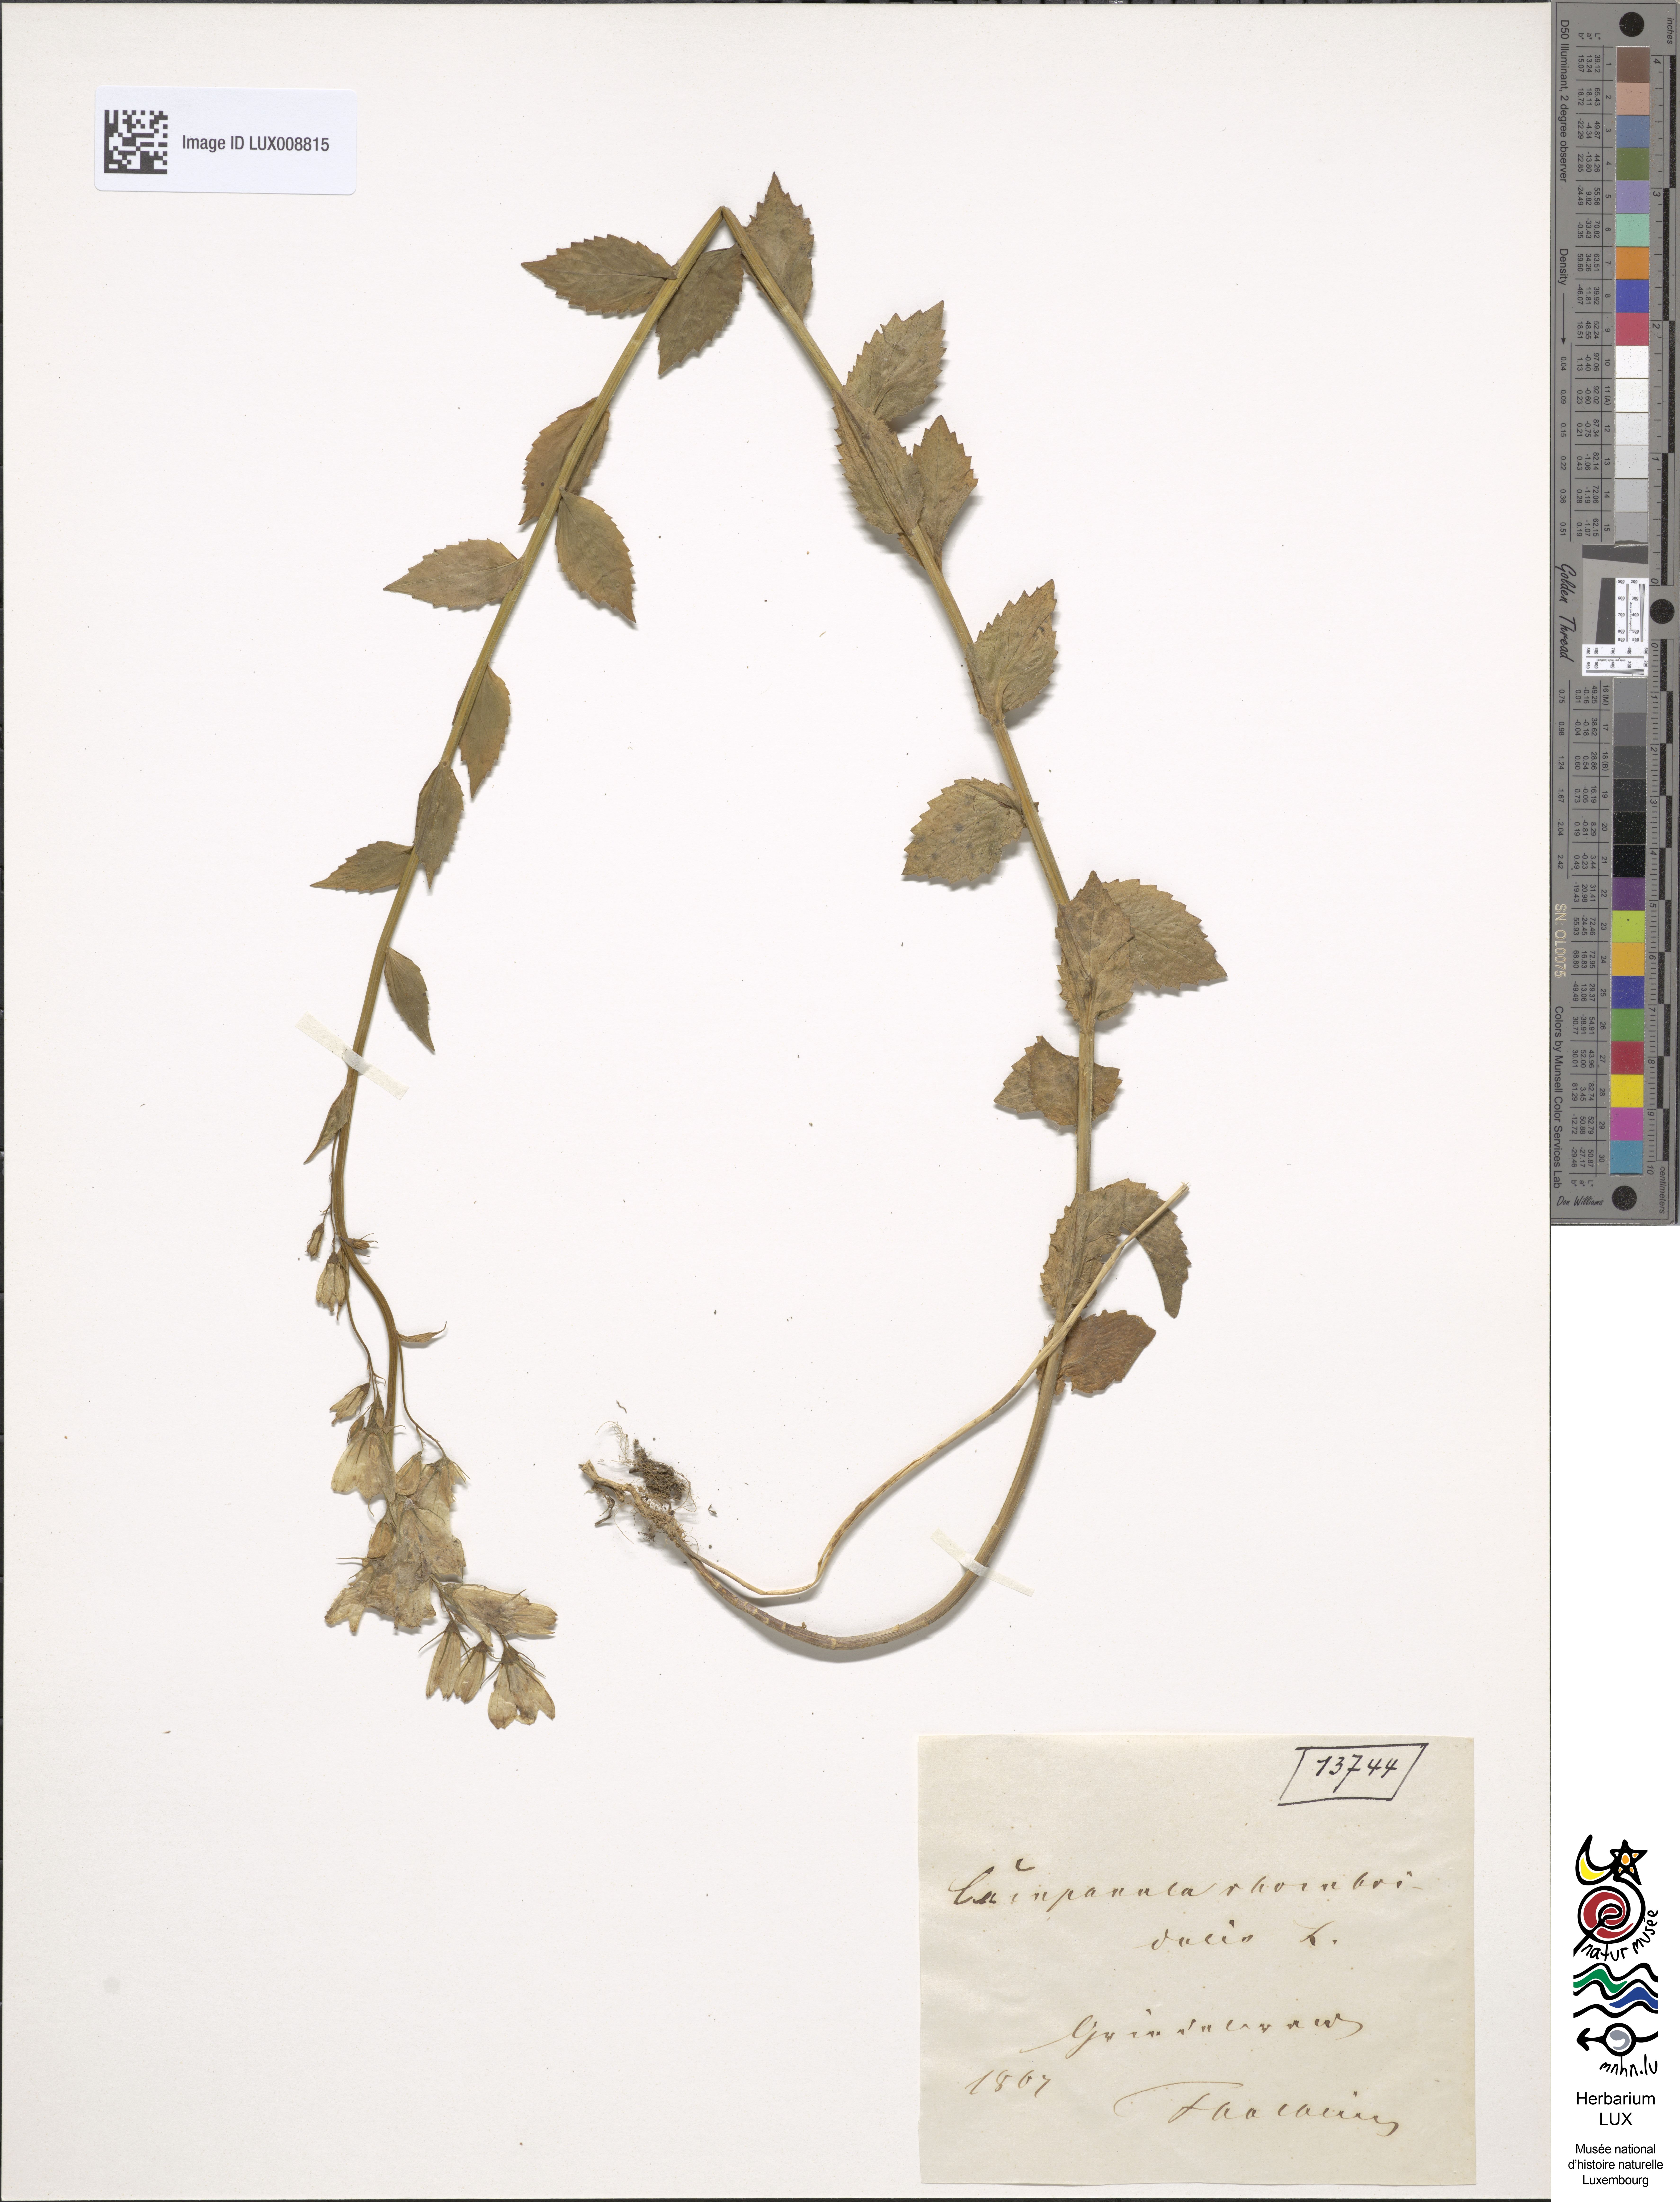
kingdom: Plantae
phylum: Tracheophyta
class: Magnoliopsida
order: Asterales
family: Campanulaceae
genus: Campanula
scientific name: Campanula rhomboidalis
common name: Broad-leaved harebell
